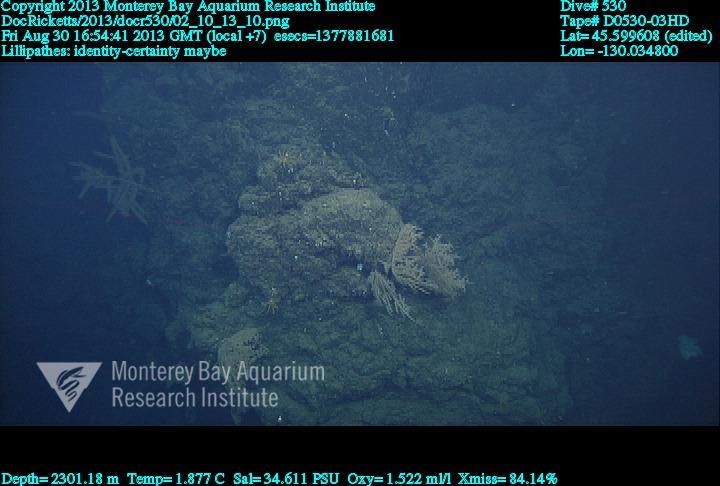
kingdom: Animalia
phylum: Cnidaria
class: Anthozoa
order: Antipatharia
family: Schizopathidae
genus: Lillipathes
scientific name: Lillipathes
